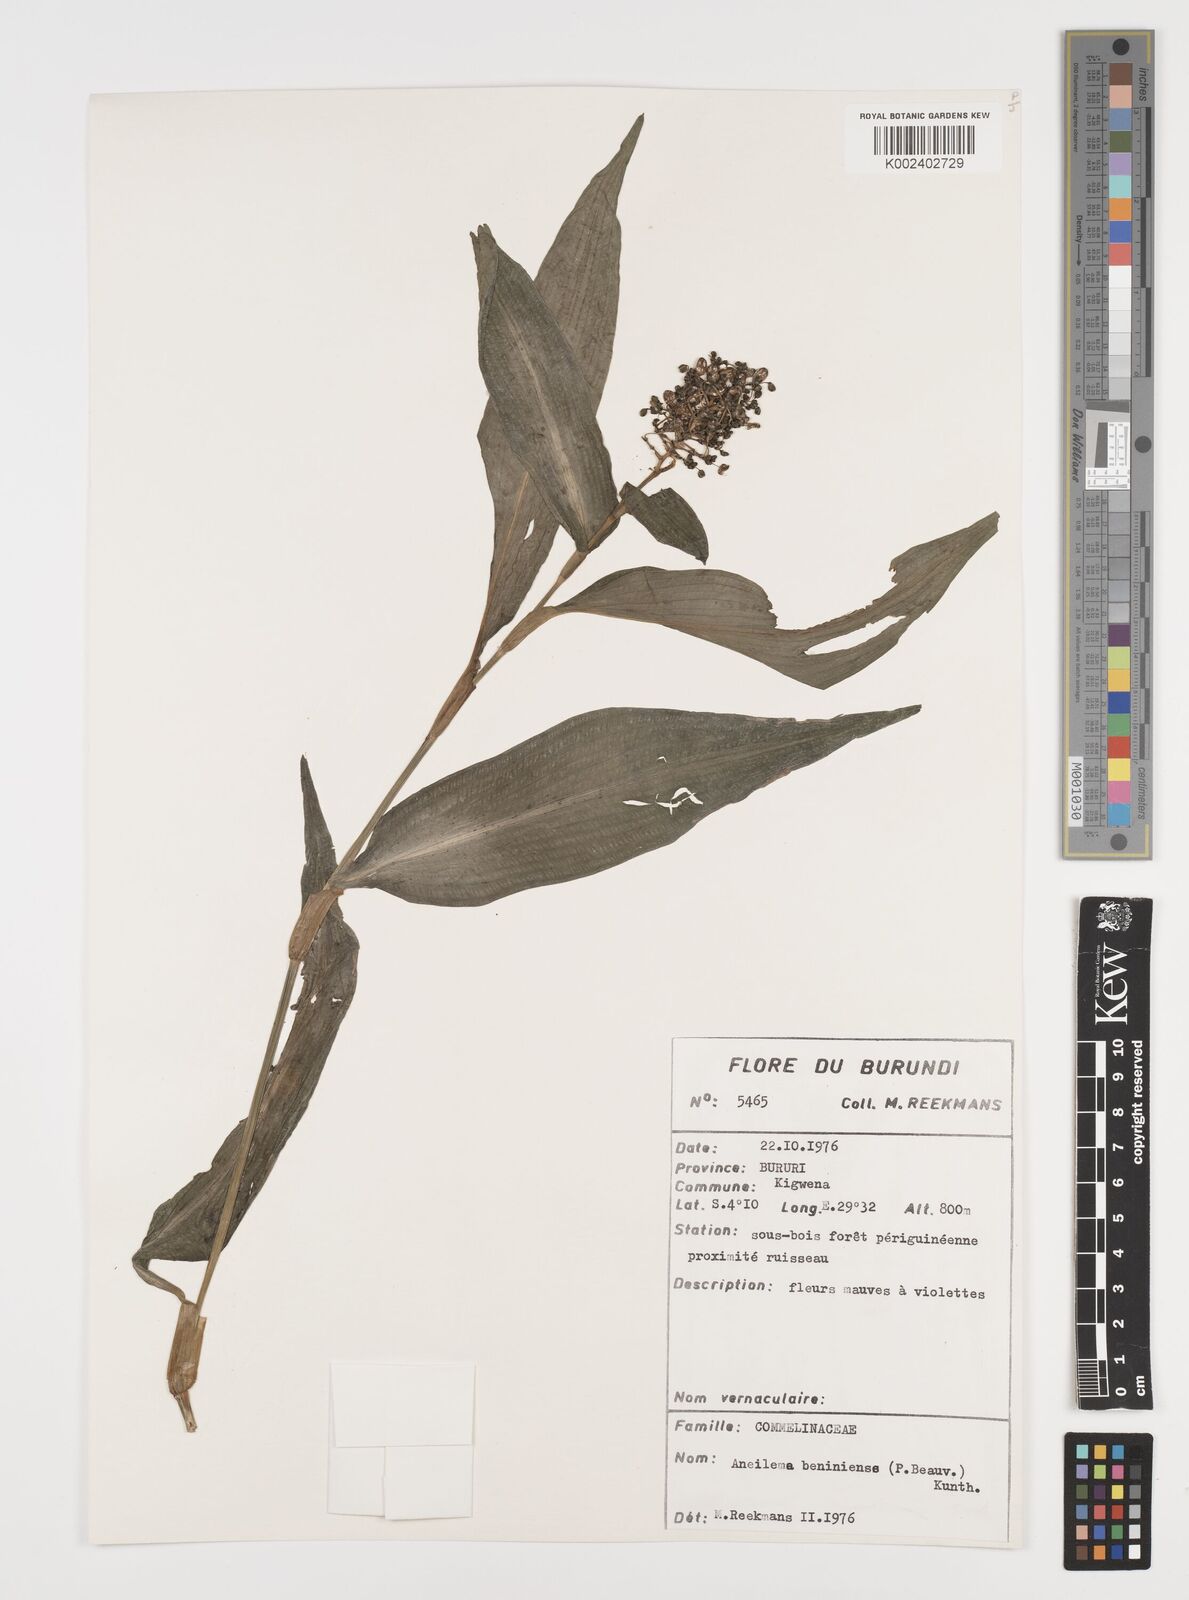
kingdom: Plantae
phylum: Tracheophyta
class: Liliopsida
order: Commelinales
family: Commelinaceae
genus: Aneilema
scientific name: Aneilema beniniense
